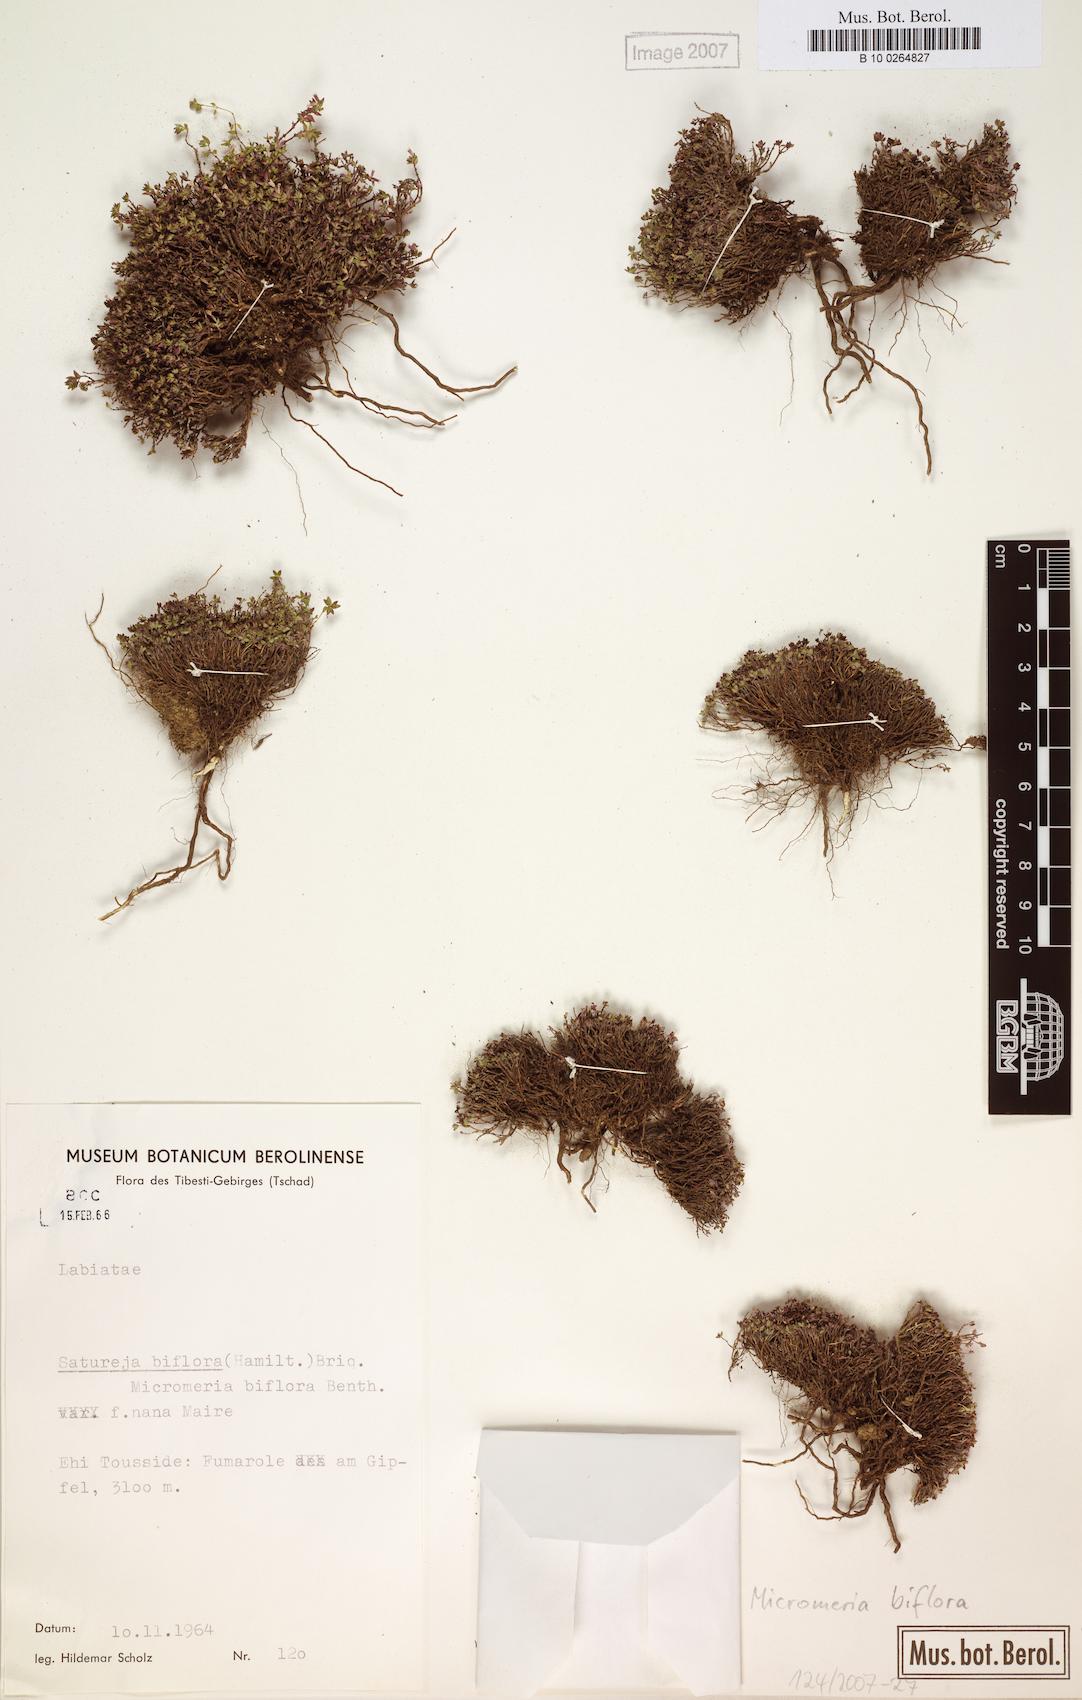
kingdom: Plantae
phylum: Tracheophyta
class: Magnoliopsida
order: Lamiales
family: Lamiaceae
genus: Micromeria
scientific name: Micromeria biflora
